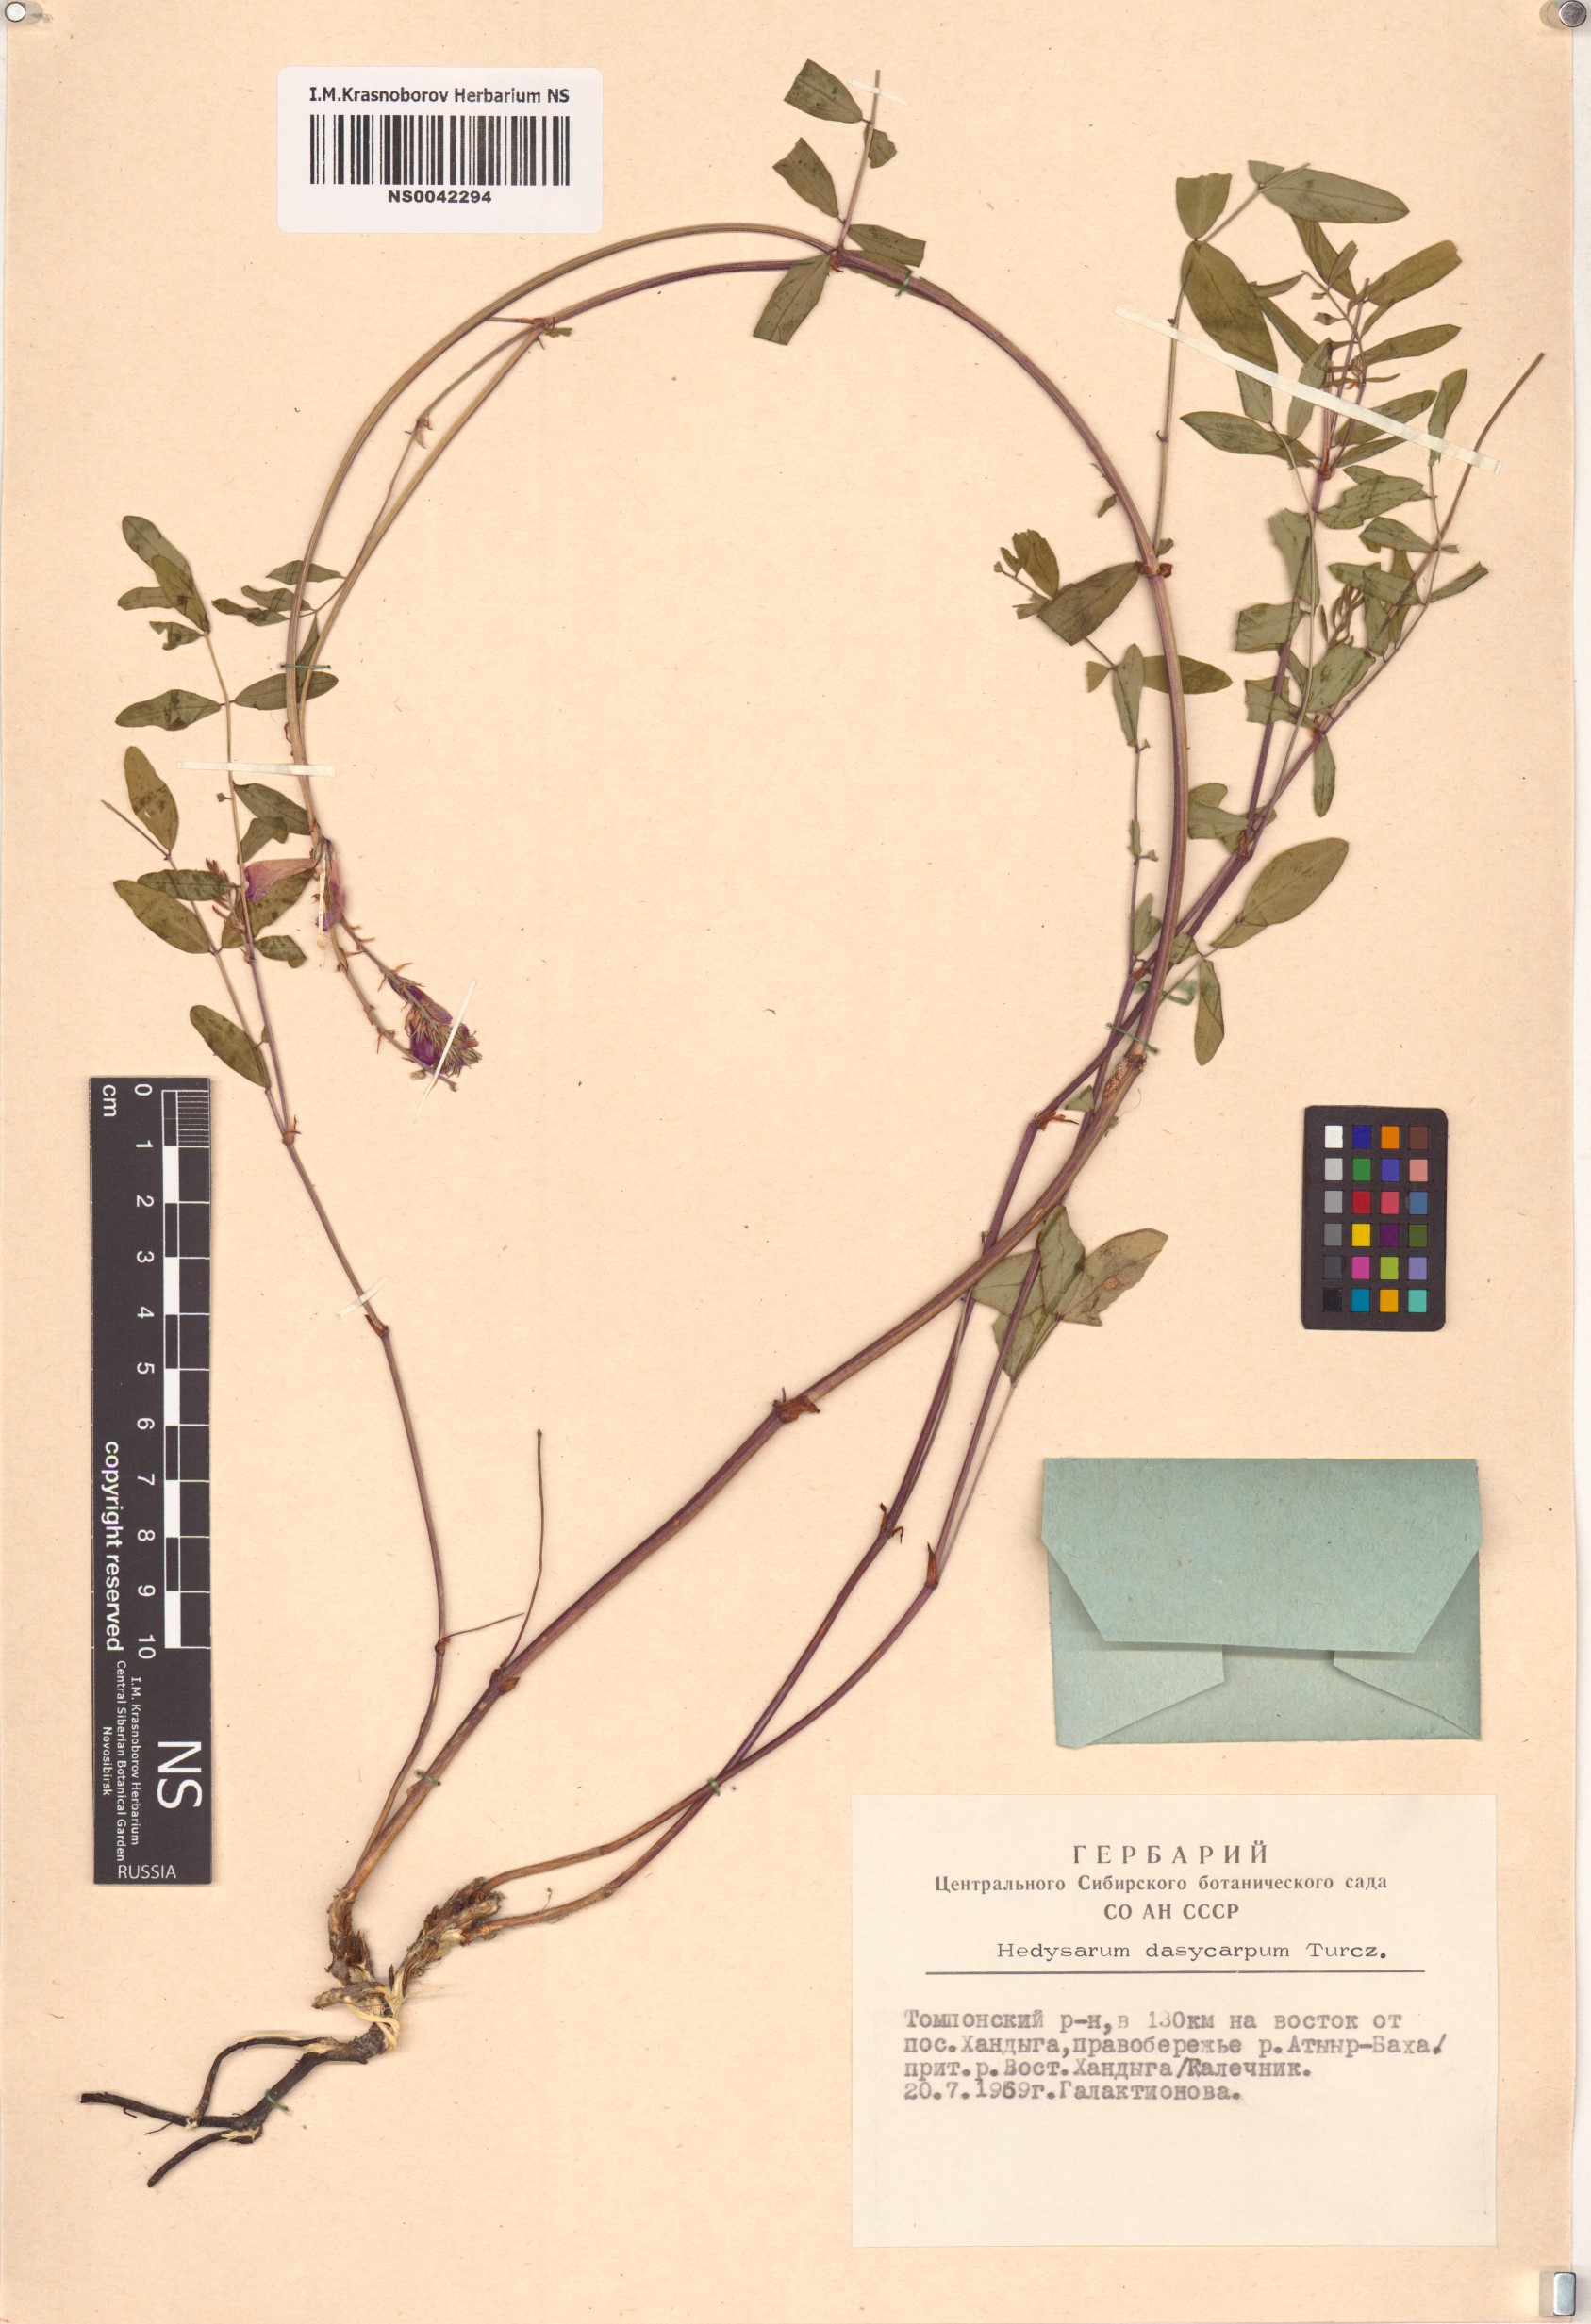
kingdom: Plantae
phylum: Tracheophyta
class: Magnoliopsida
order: Fabales
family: Fabaceae
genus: Hedysarum
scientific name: Hedysarum dasycarpum
